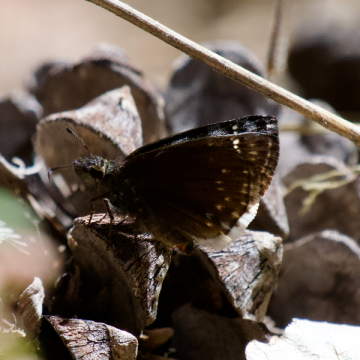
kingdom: Animalia
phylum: Arthropoda
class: Insecta
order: Lepidoptera
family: Hesperiidae
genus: Erynnis
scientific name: Erynnis brizo
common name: Sleepy Duskywing
